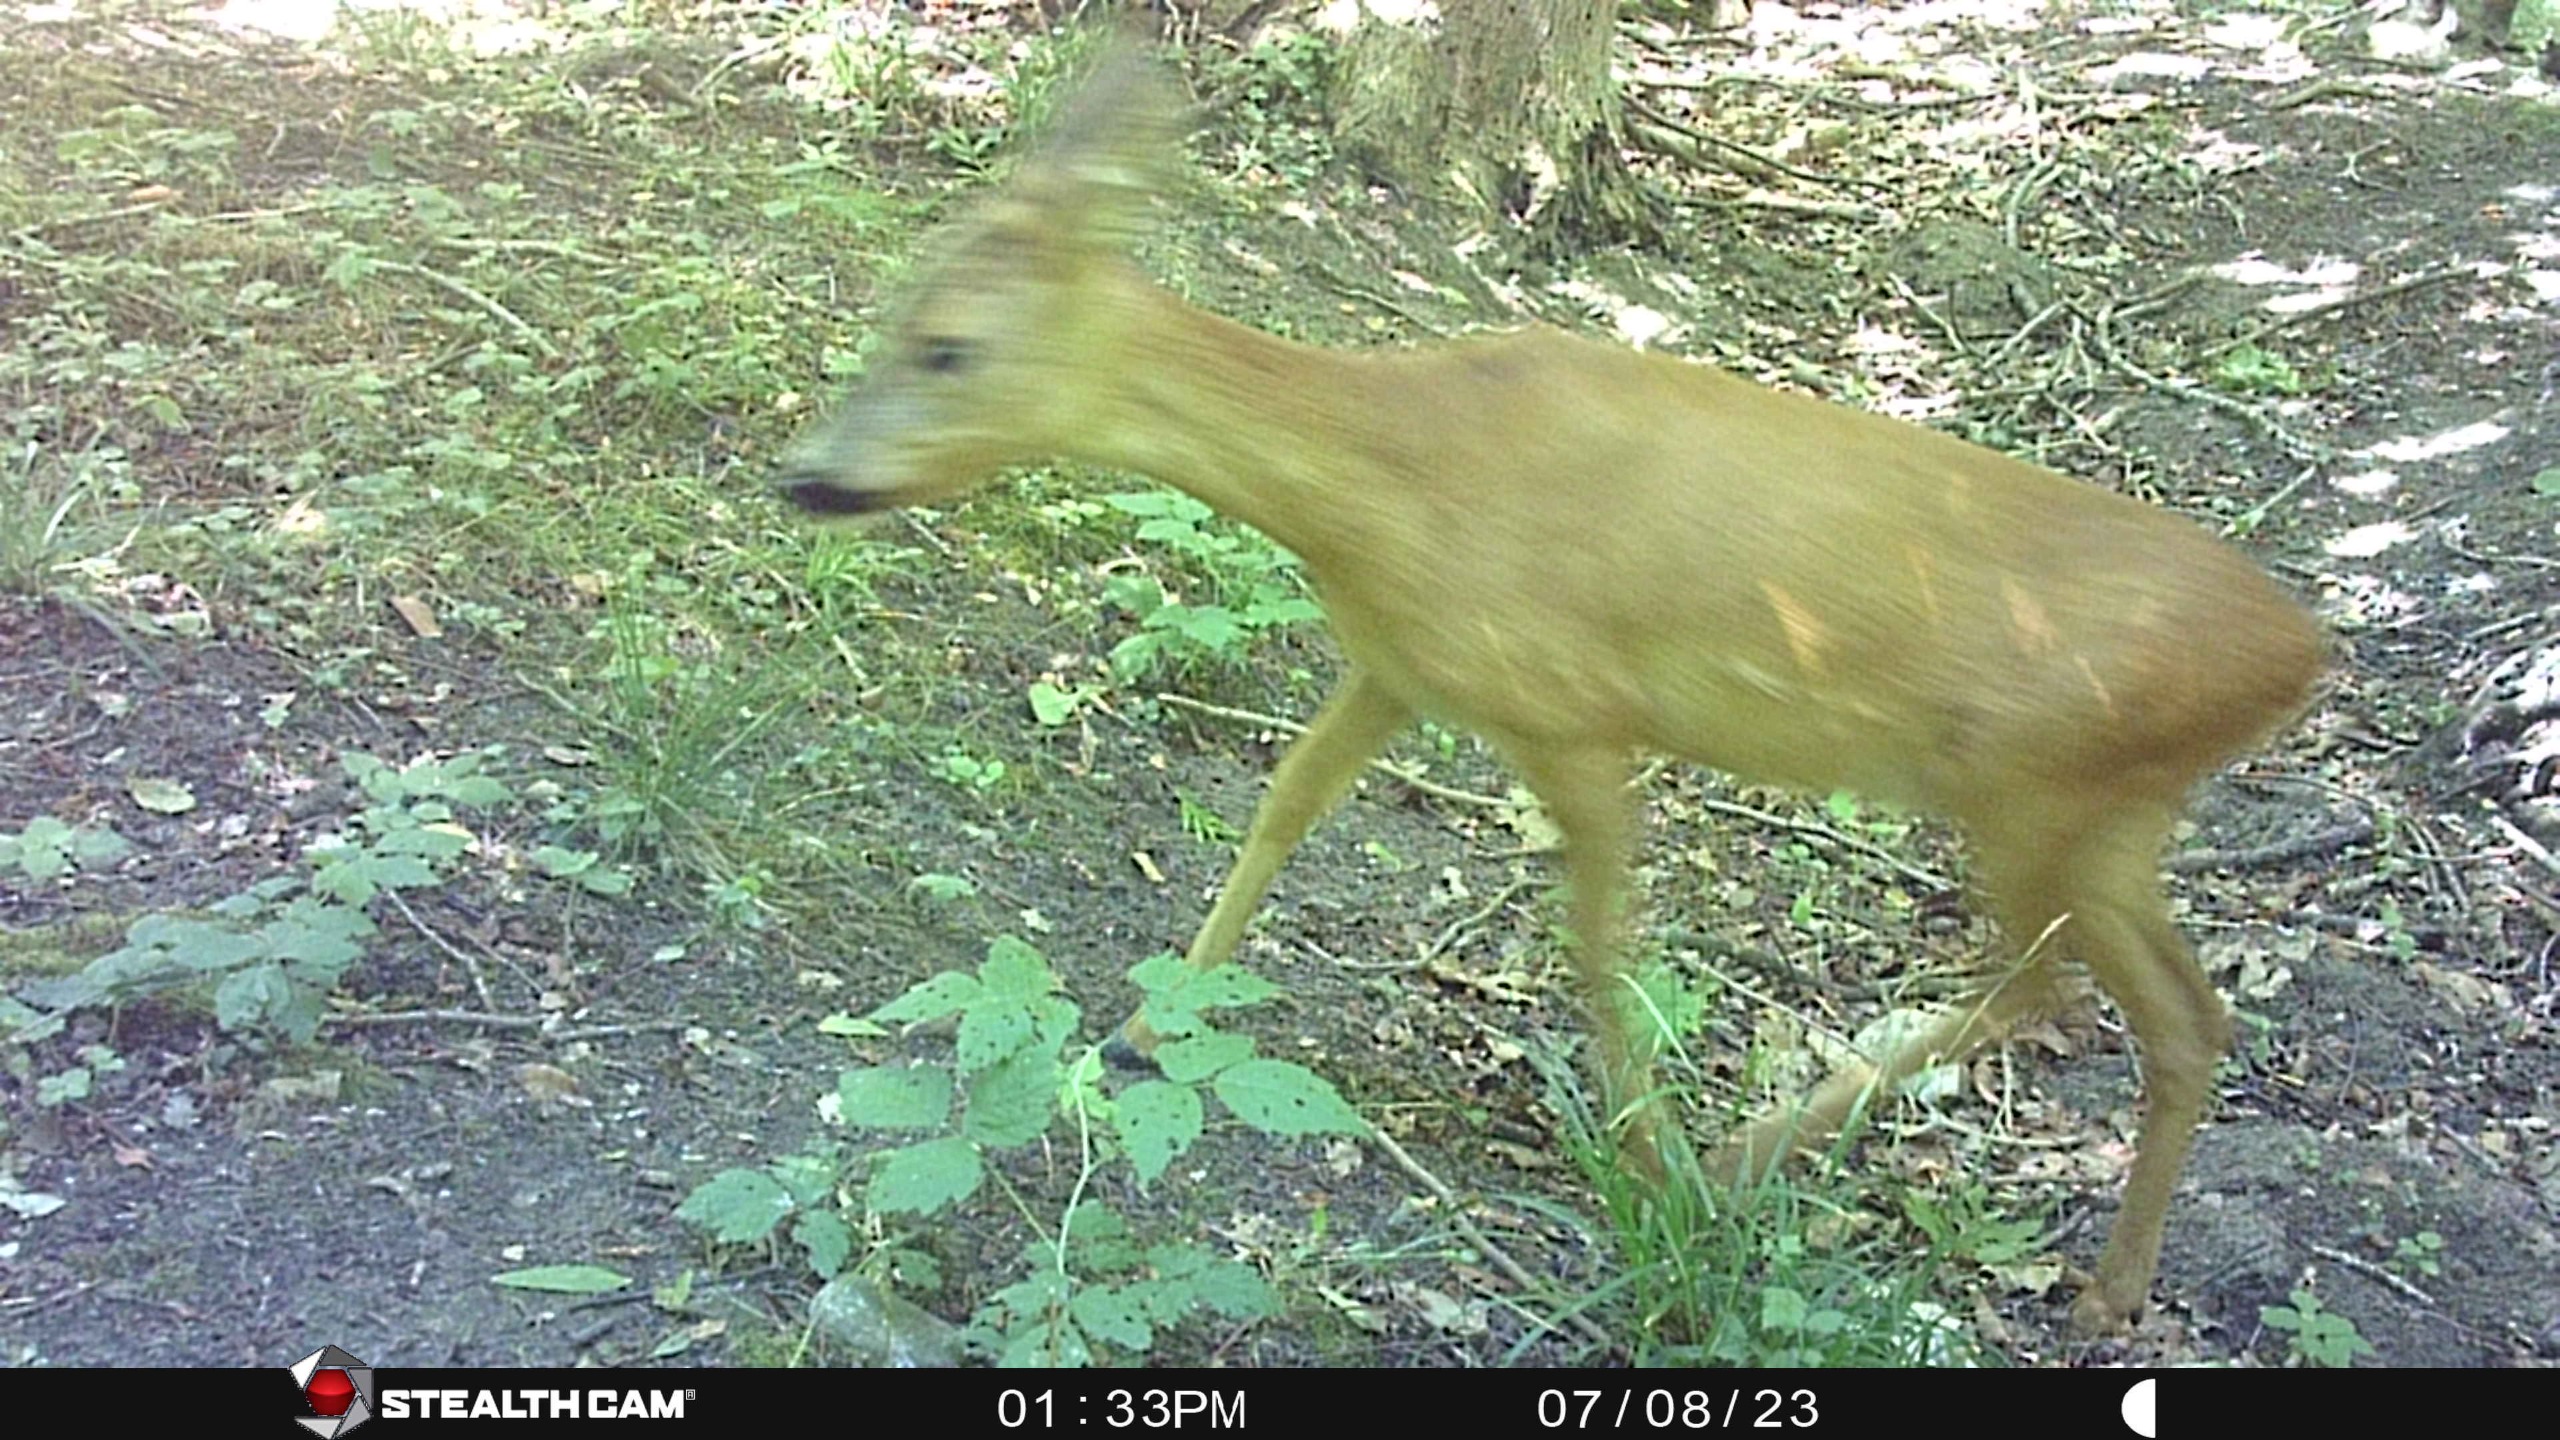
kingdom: Animalia
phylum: Chordata
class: Mammalia
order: Artiodactyla
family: Cervidae
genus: Capreolus
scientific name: Capreolus capreolus
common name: Rådyr
